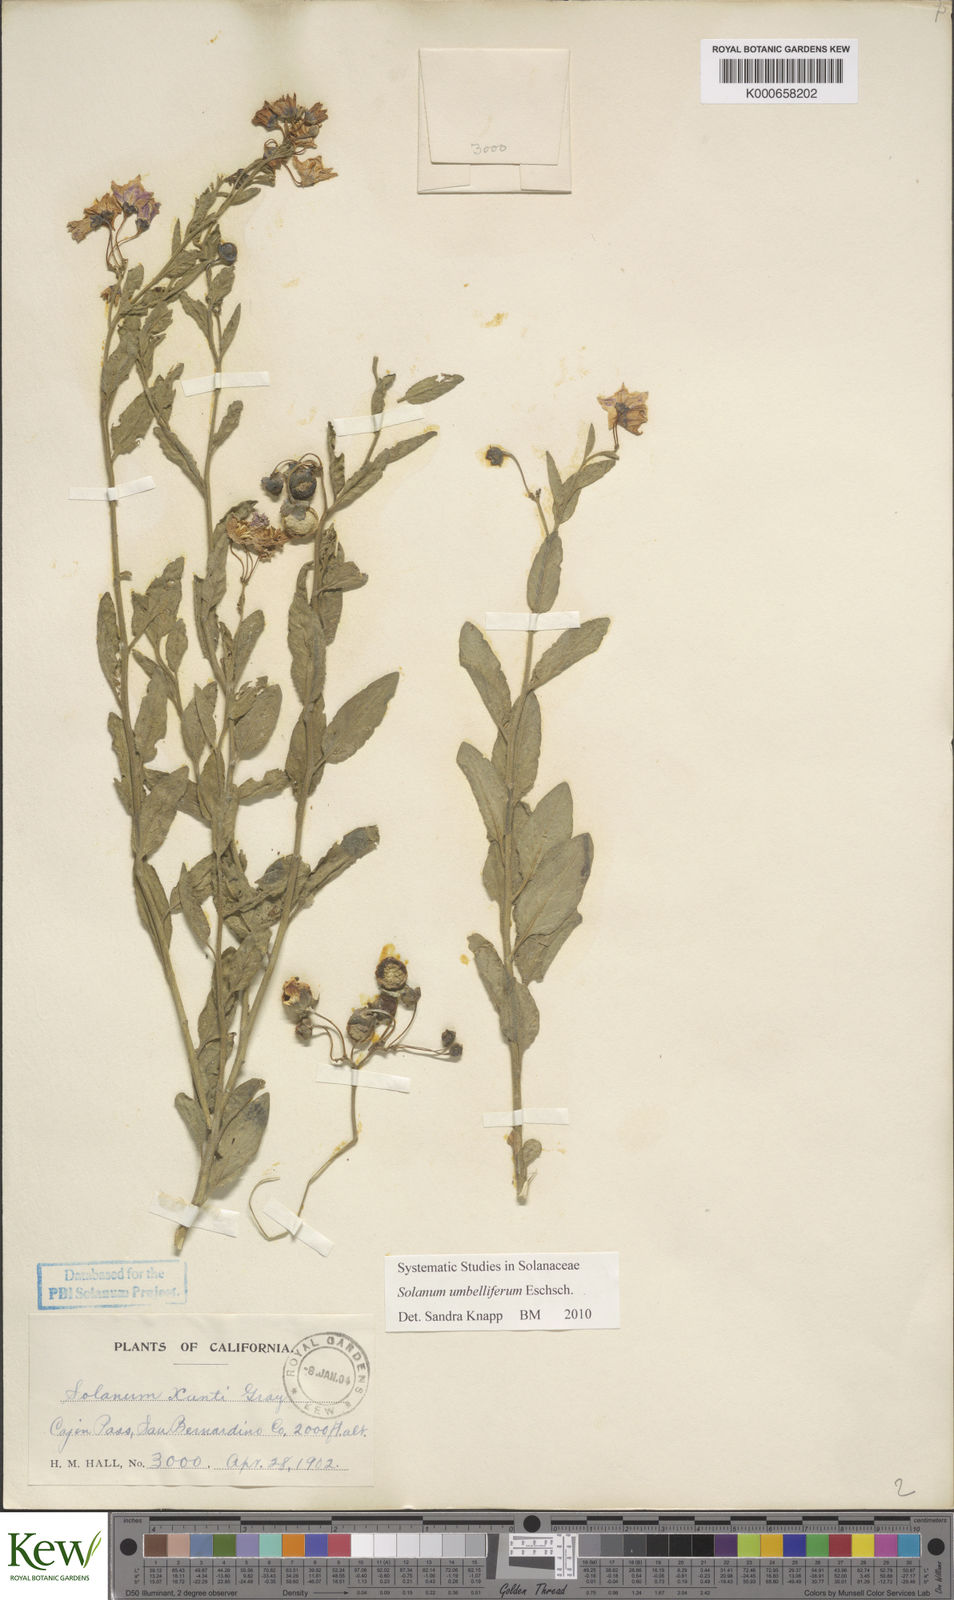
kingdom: Plantae
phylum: Tracheophyta
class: Magnoliopsida
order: Solanales
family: Solanaceae
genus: Solanum
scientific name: Solanum umbelliferum
